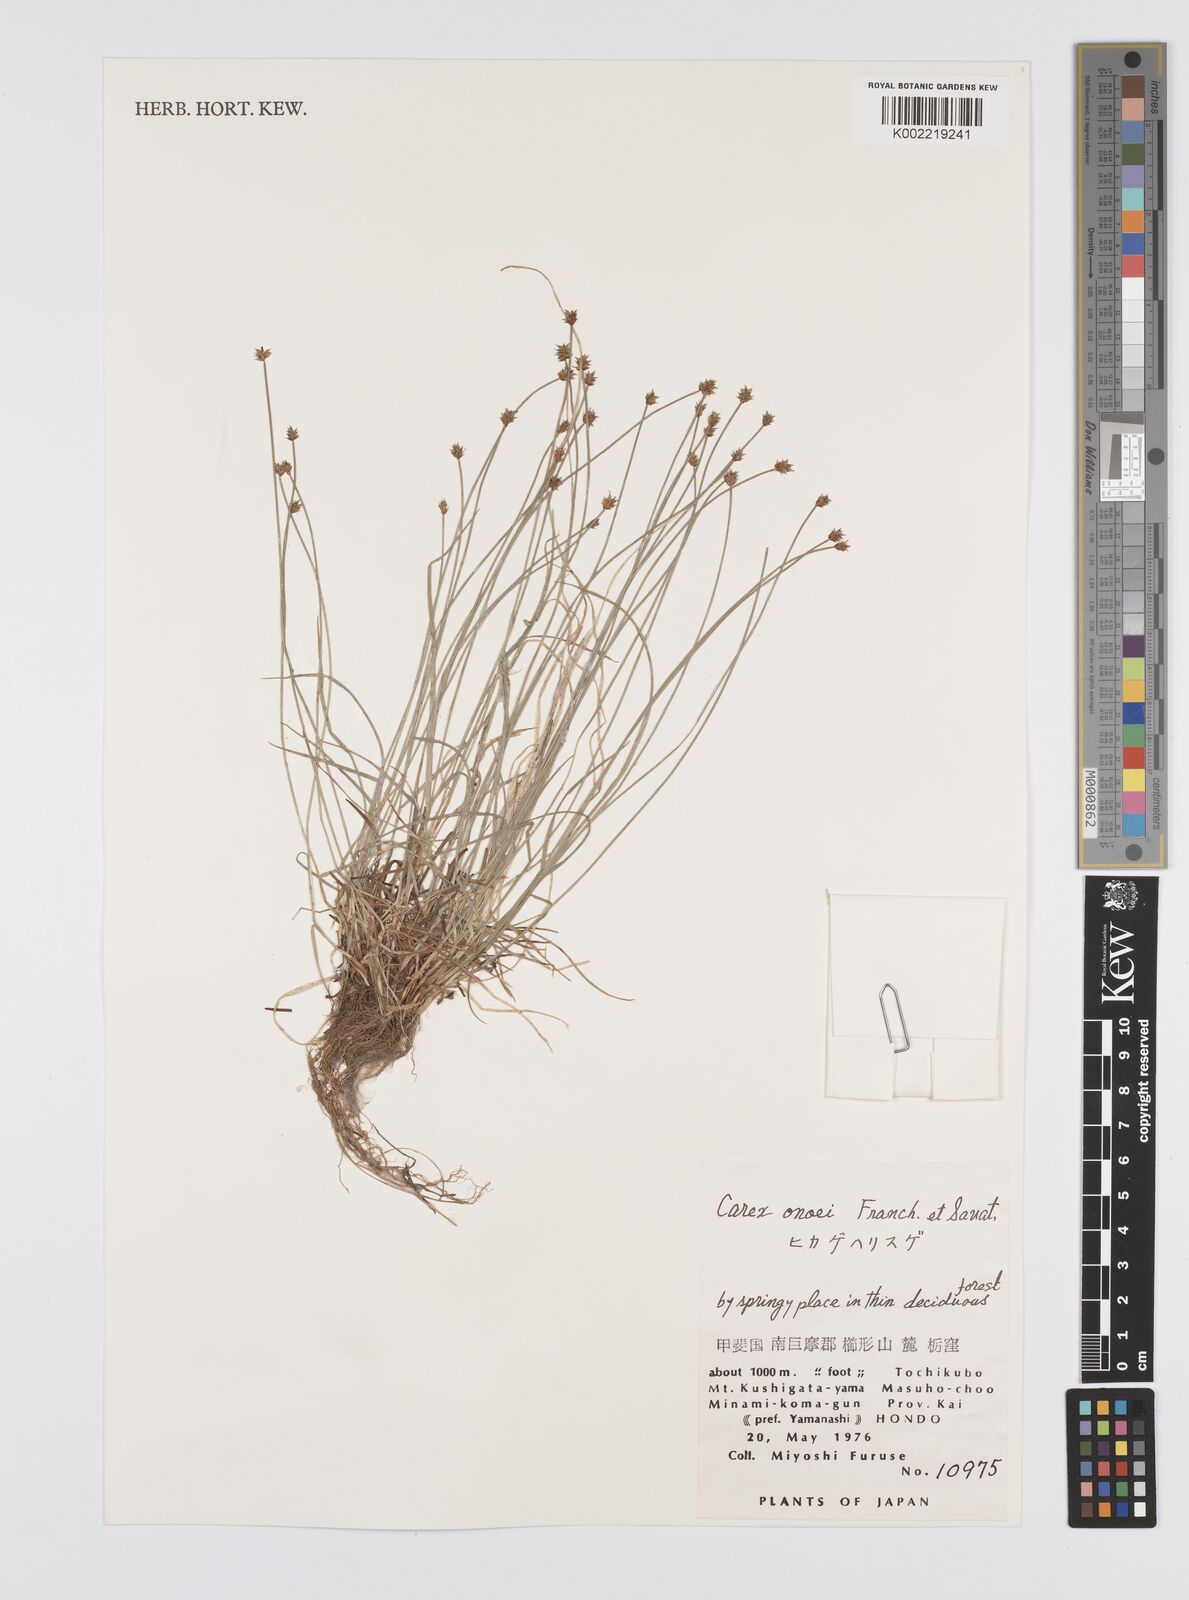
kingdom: Plantae
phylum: Tracheophyta
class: Liliopsida
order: Poales
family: Cyperaceae
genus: Carex
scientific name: Carex onoei
